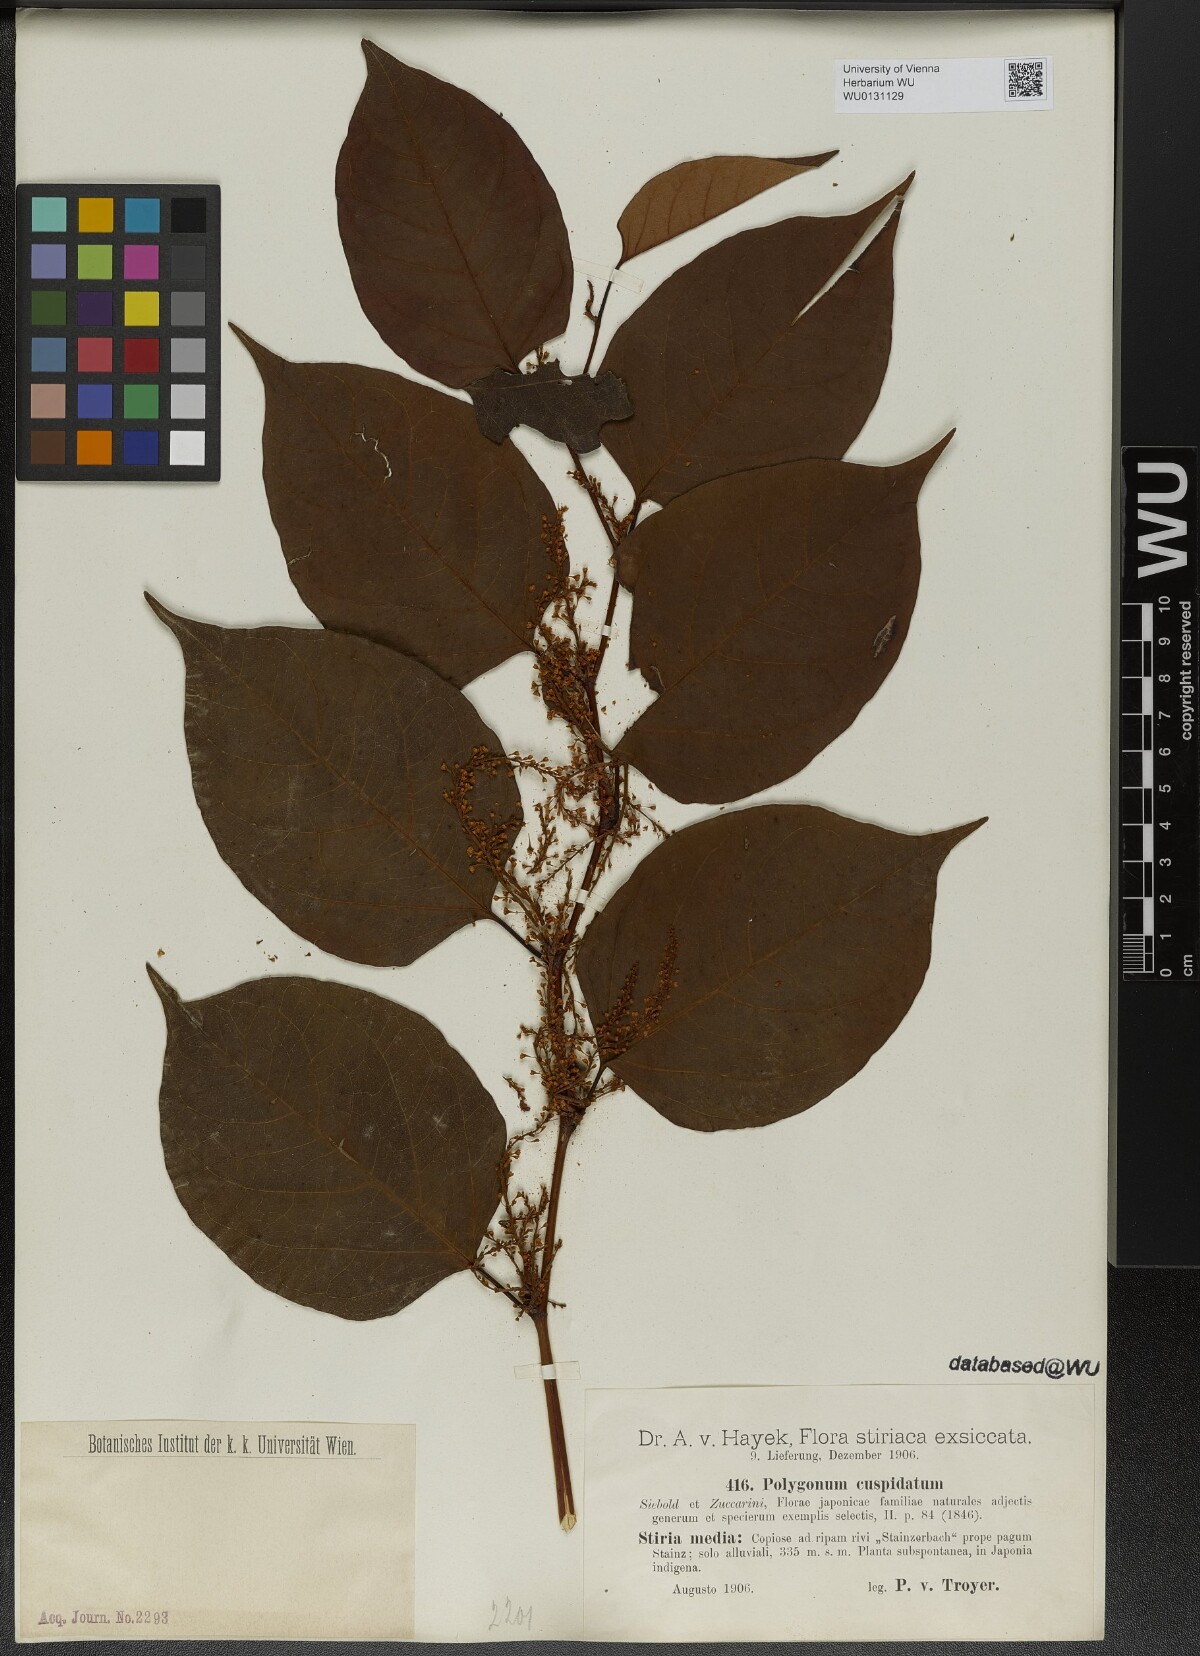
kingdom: Plantae
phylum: Tracheophyta
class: Magnoliopsida
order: Caryophyllales
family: Polygonaceae
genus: Reynoutria
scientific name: Reynoutria japonica
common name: Japanese knotweed
